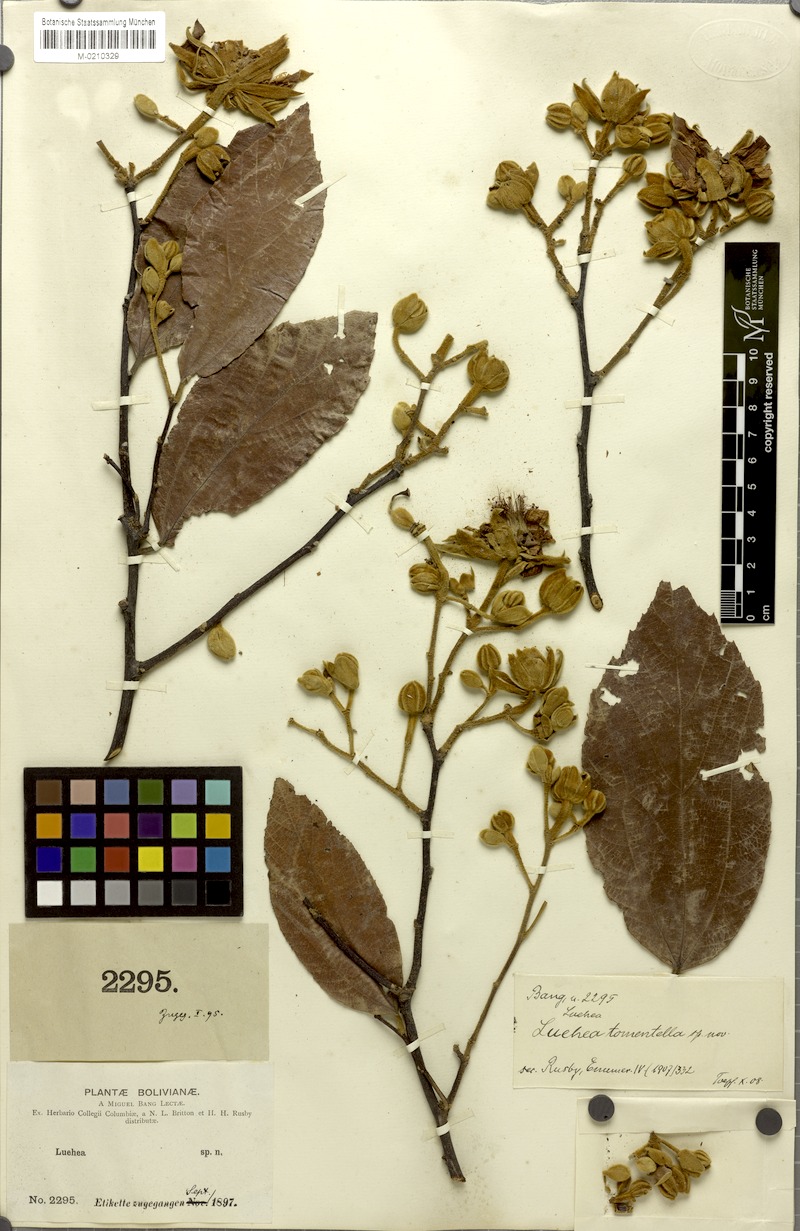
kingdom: Plantae
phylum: Tracheophyta
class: Magnoliopsida
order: Malvales
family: Malvaceae
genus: Luehea
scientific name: Luehea tomentella
